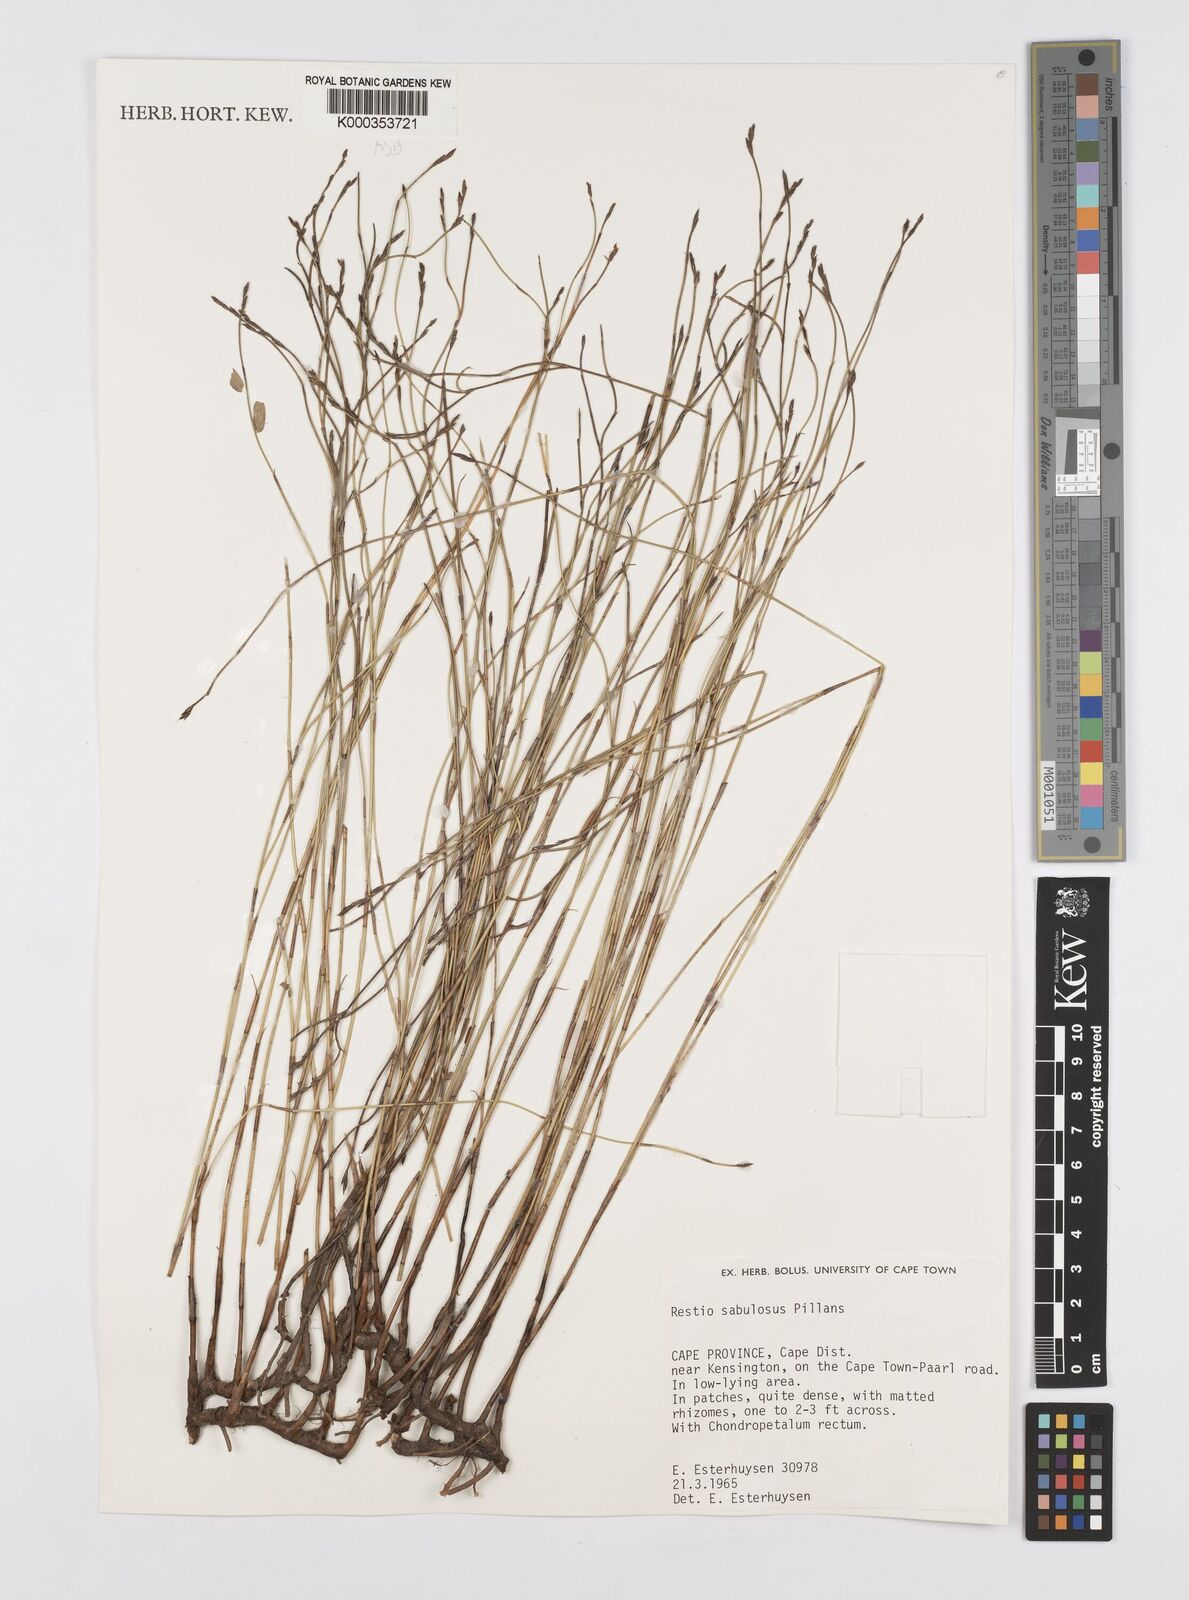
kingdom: Plantae
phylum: Tracheophyta
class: Liliopsida
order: Poales
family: Restionaceae
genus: Restio
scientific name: Restio sabulosus
